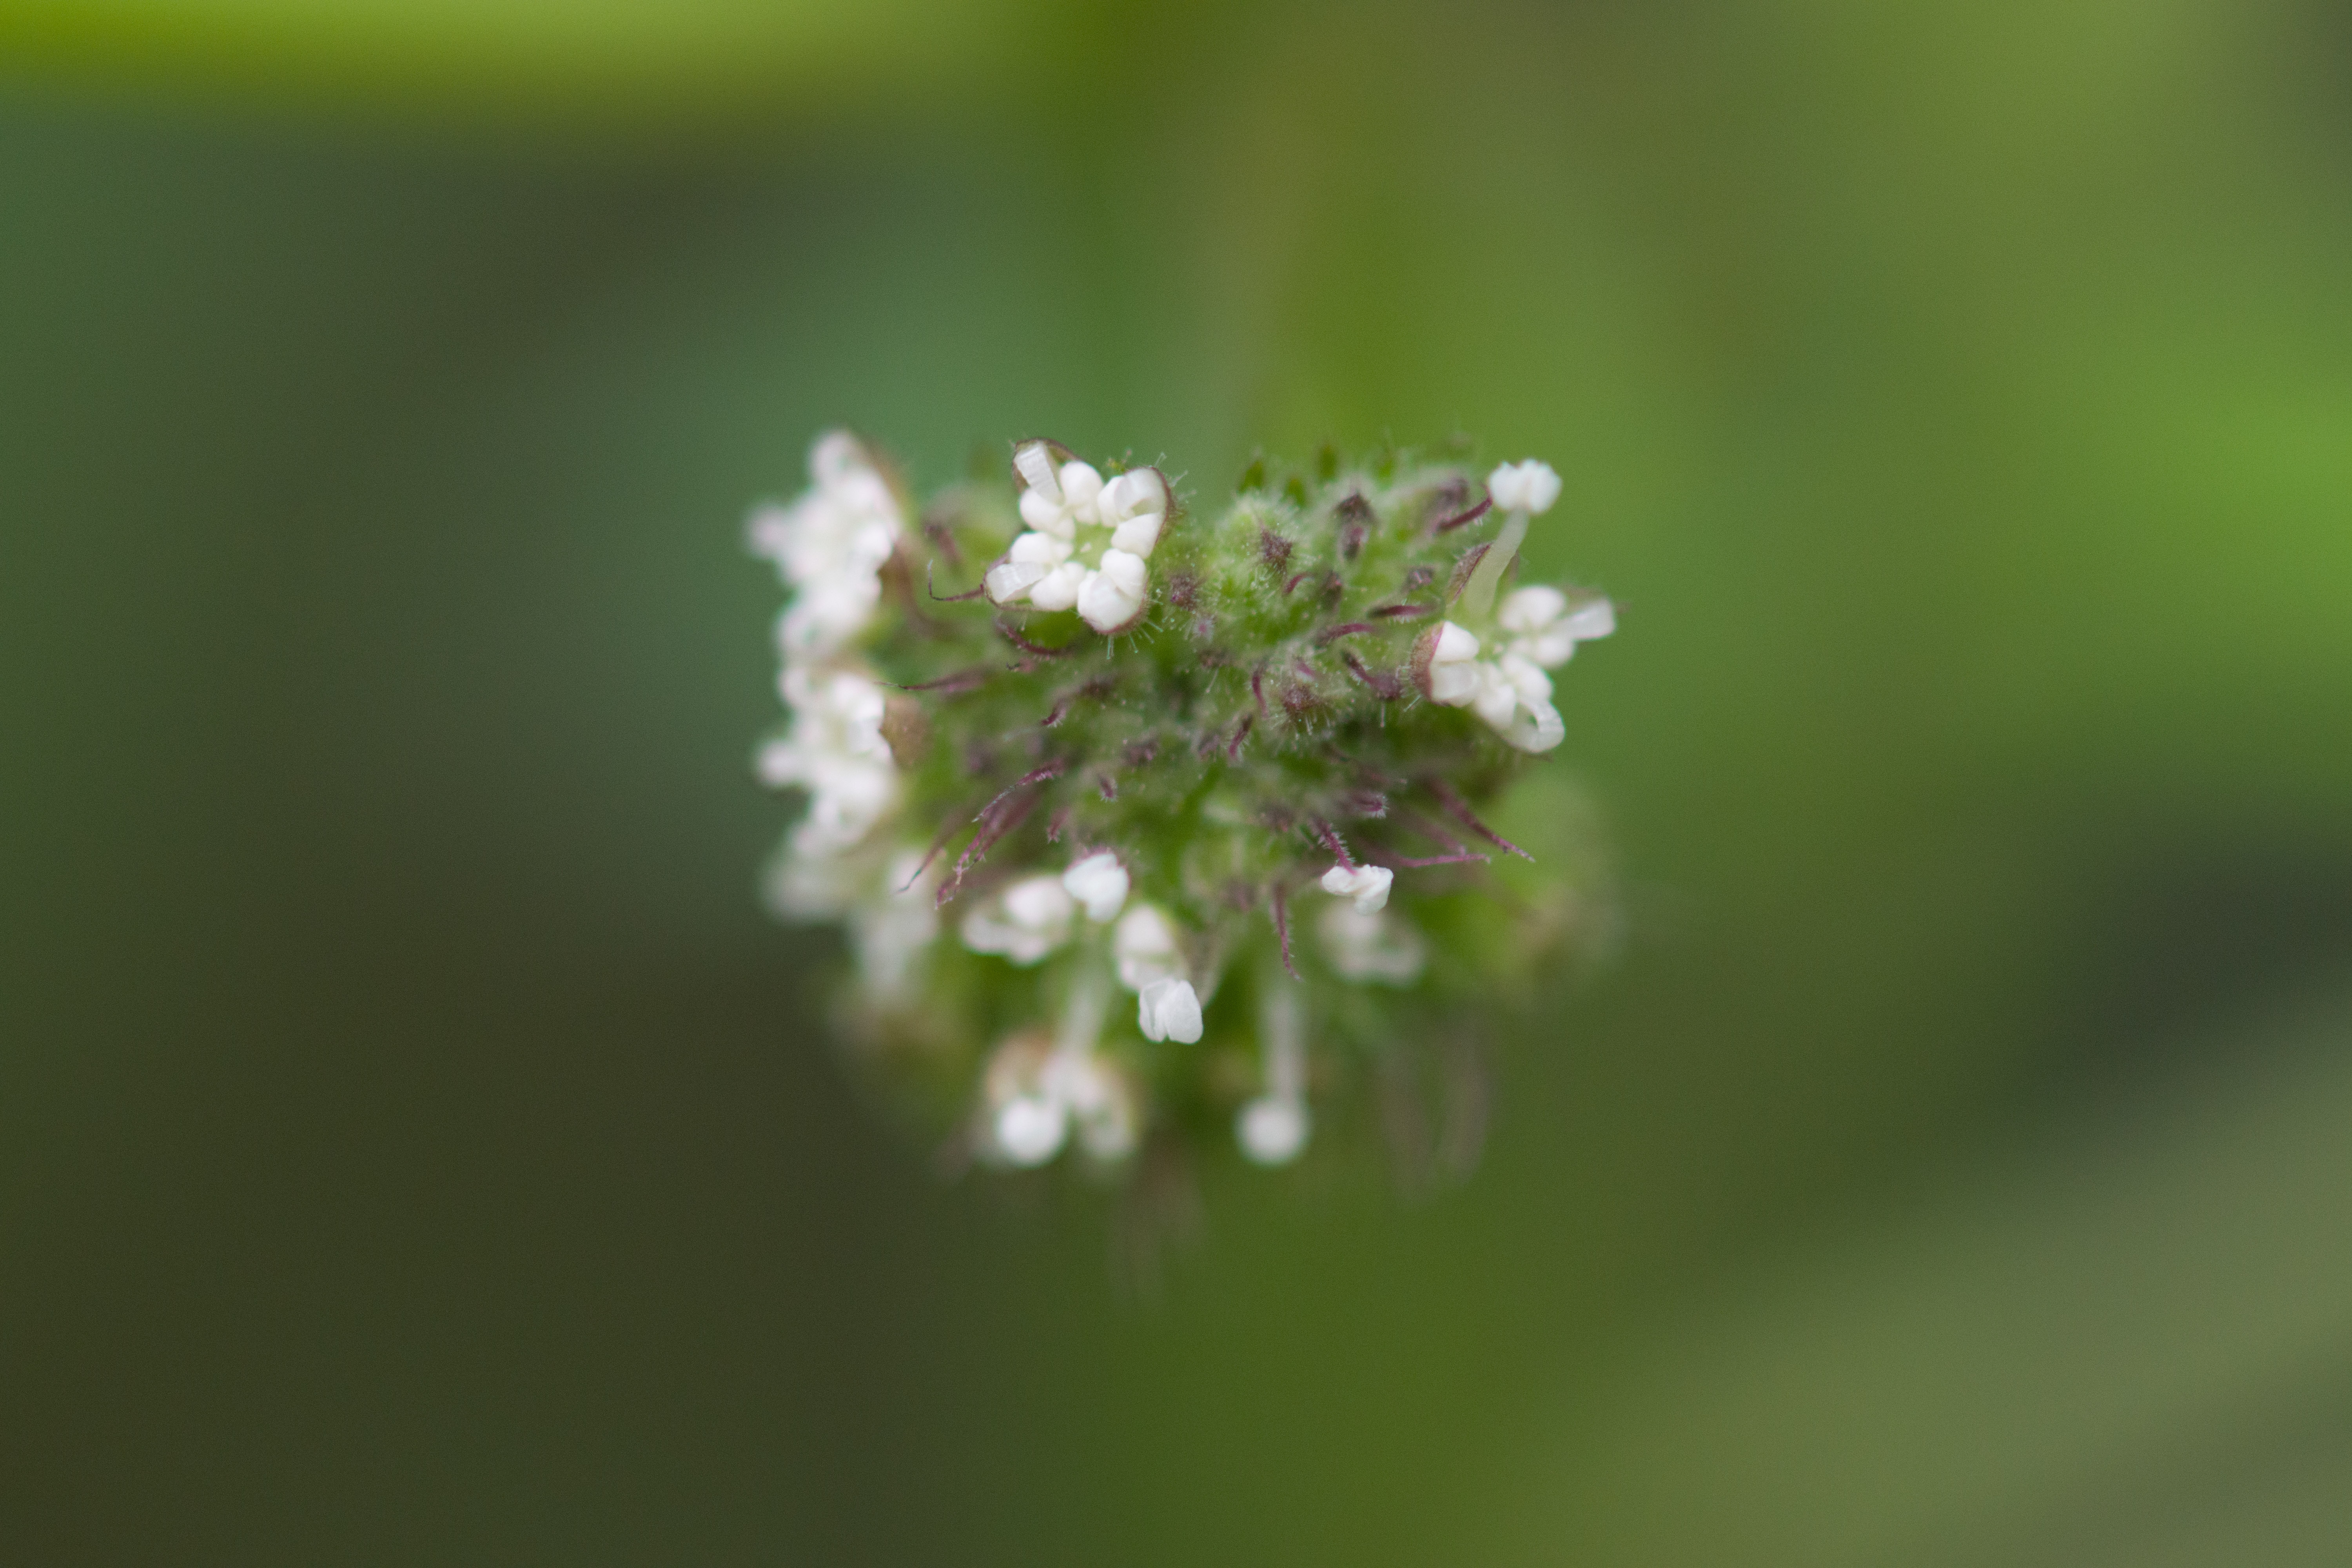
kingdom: Plantae
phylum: Tracheophyta
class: Magnoliopsida
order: Rosales
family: Moraceae
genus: Fatoua
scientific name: Fatoua villosa
